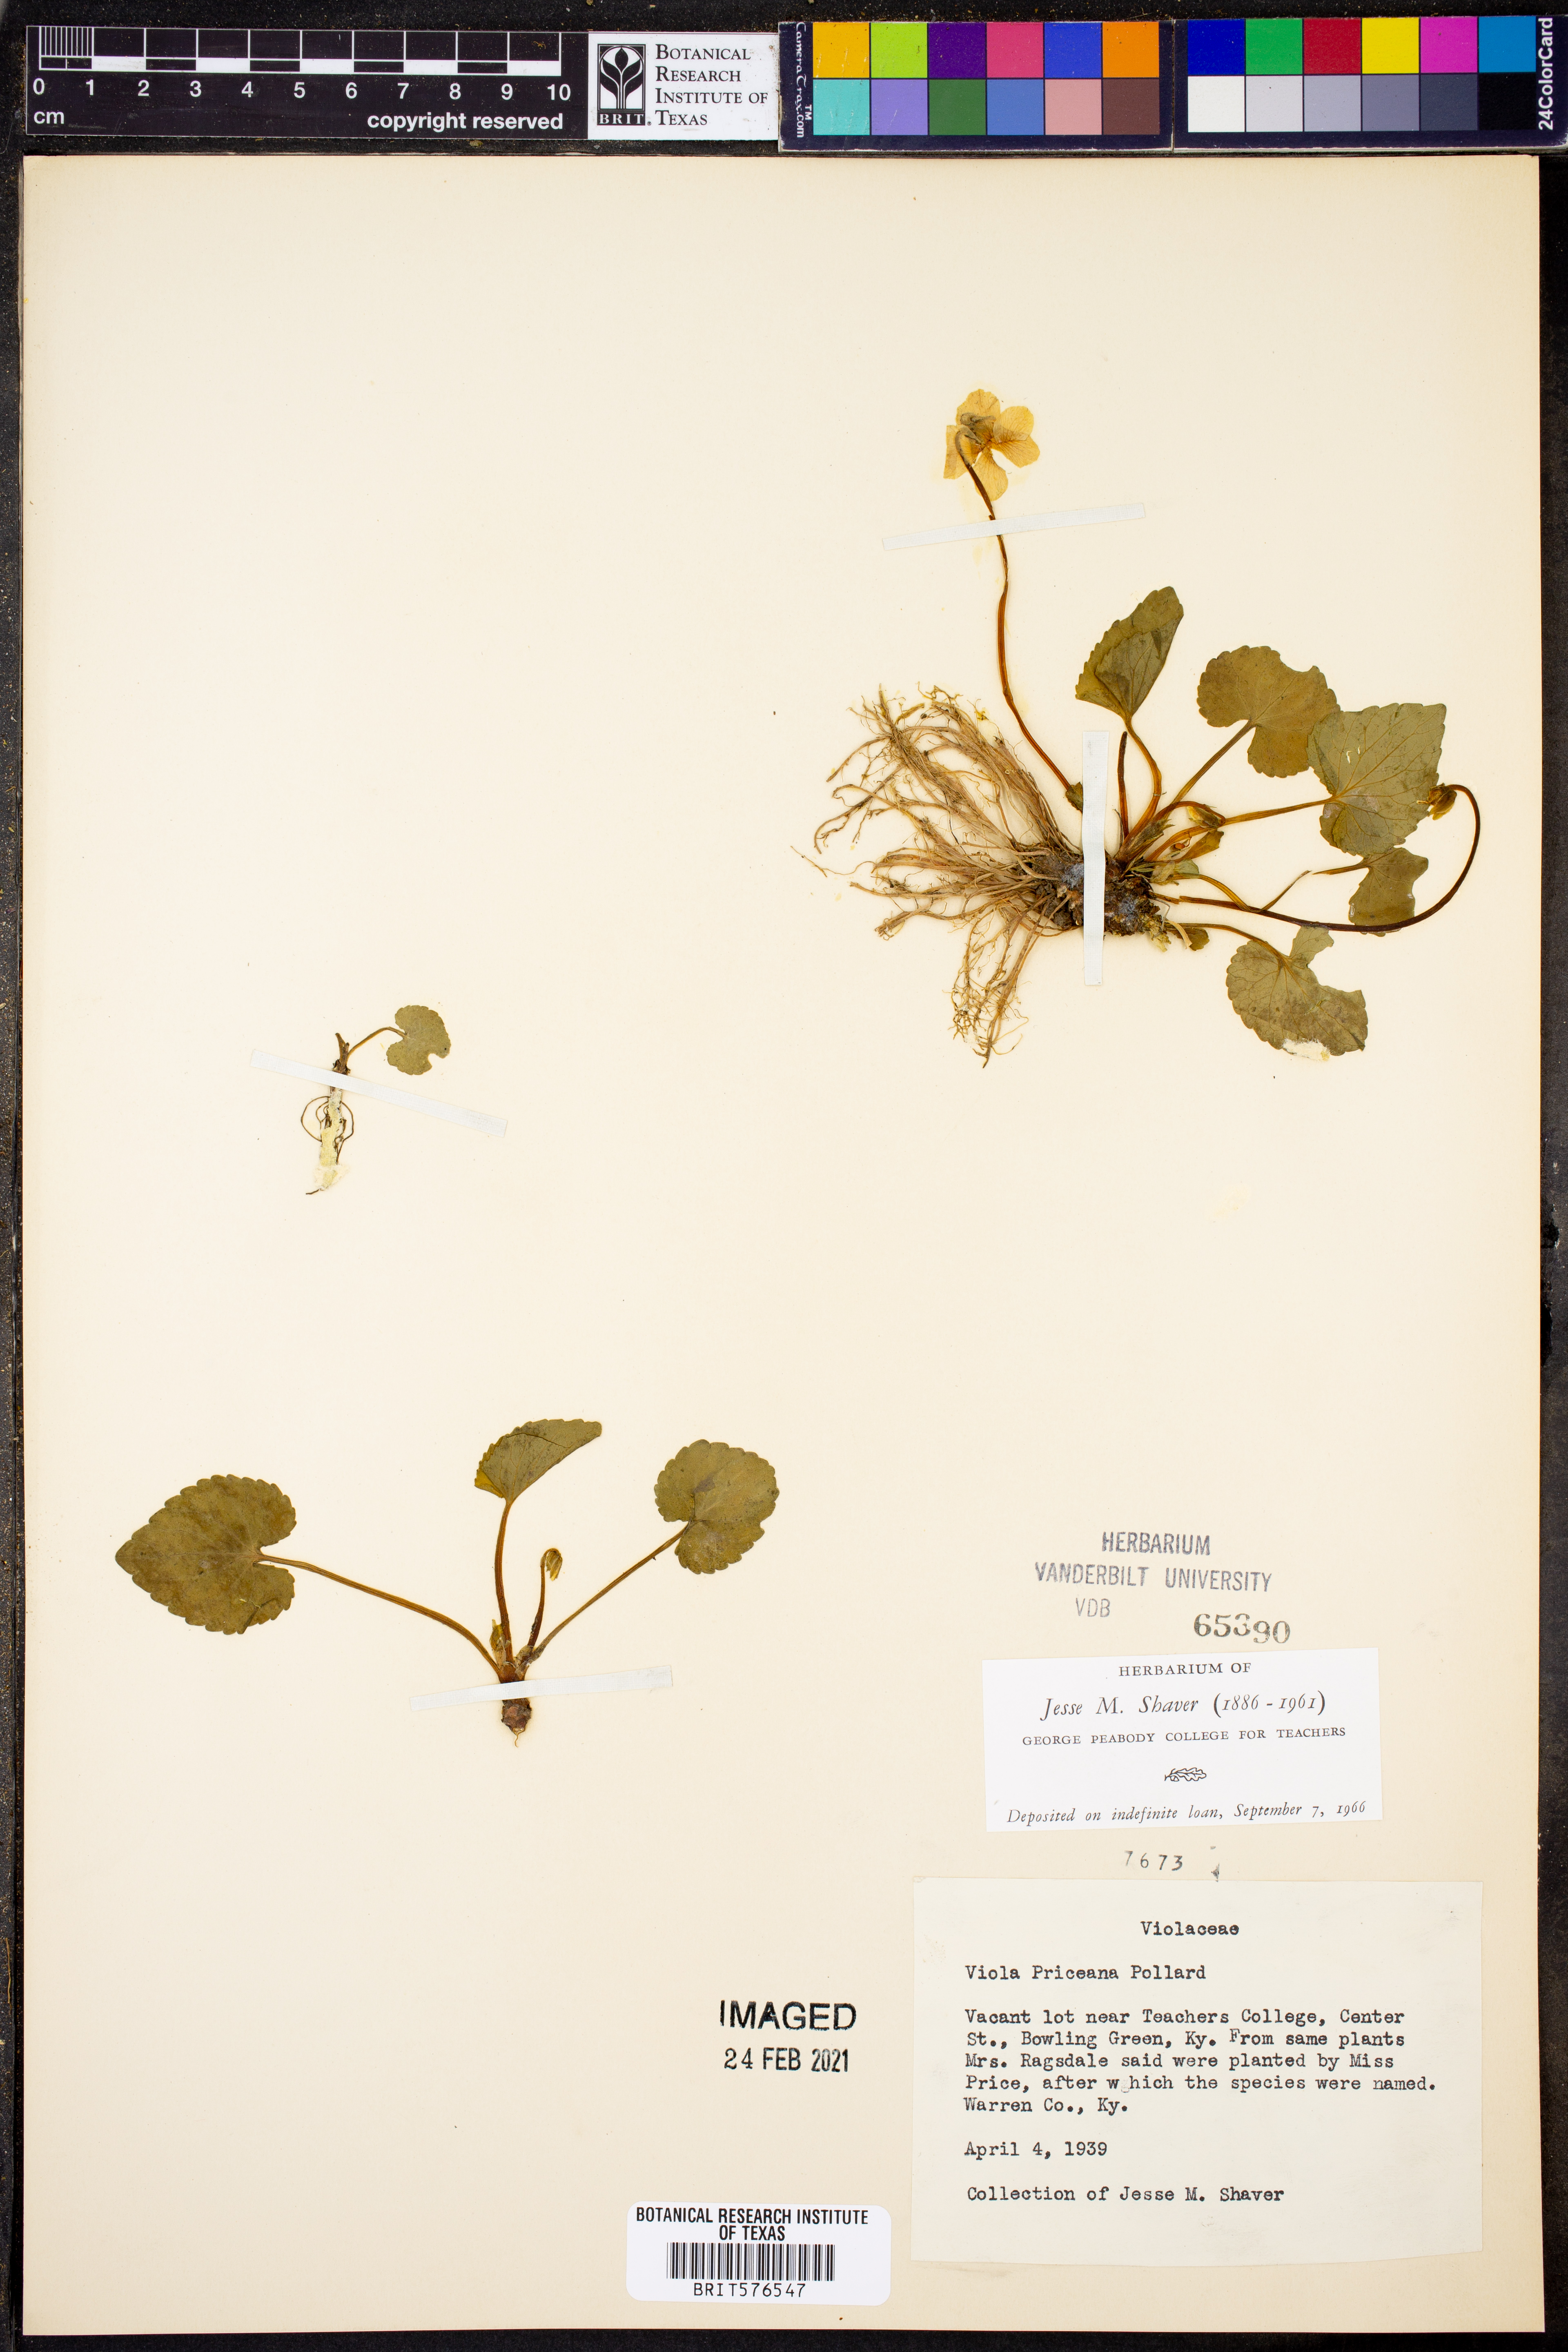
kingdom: Plantae
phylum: Tracheophyta
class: Magnoliopsida
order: Malpighiales
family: Violaceae
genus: Viola
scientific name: Viola communis
